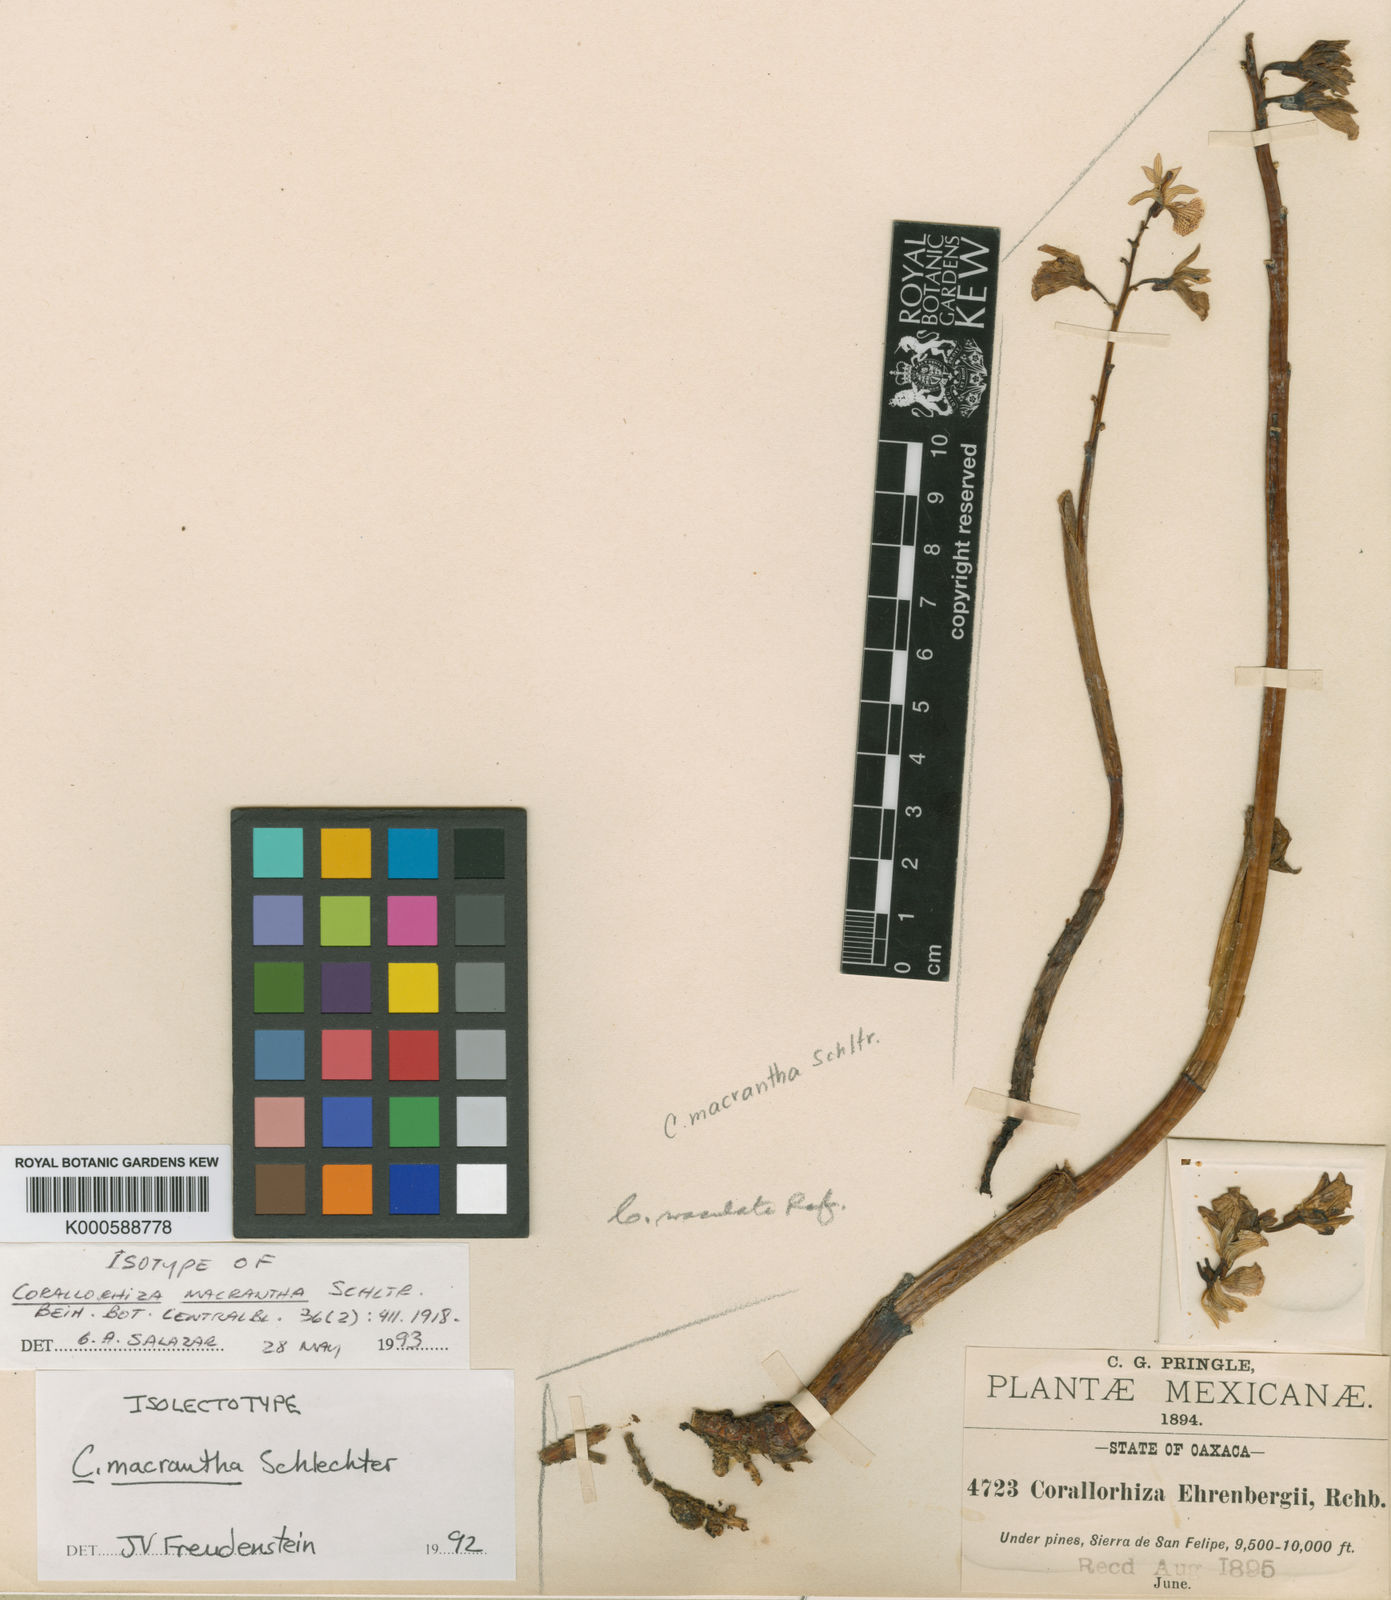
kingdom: Plantae
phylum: Tracheophyta
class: Liliopsida
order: Asparagales
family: Orchidaceae
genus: Corallorhiza
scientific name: Corallorhiza macrantha
